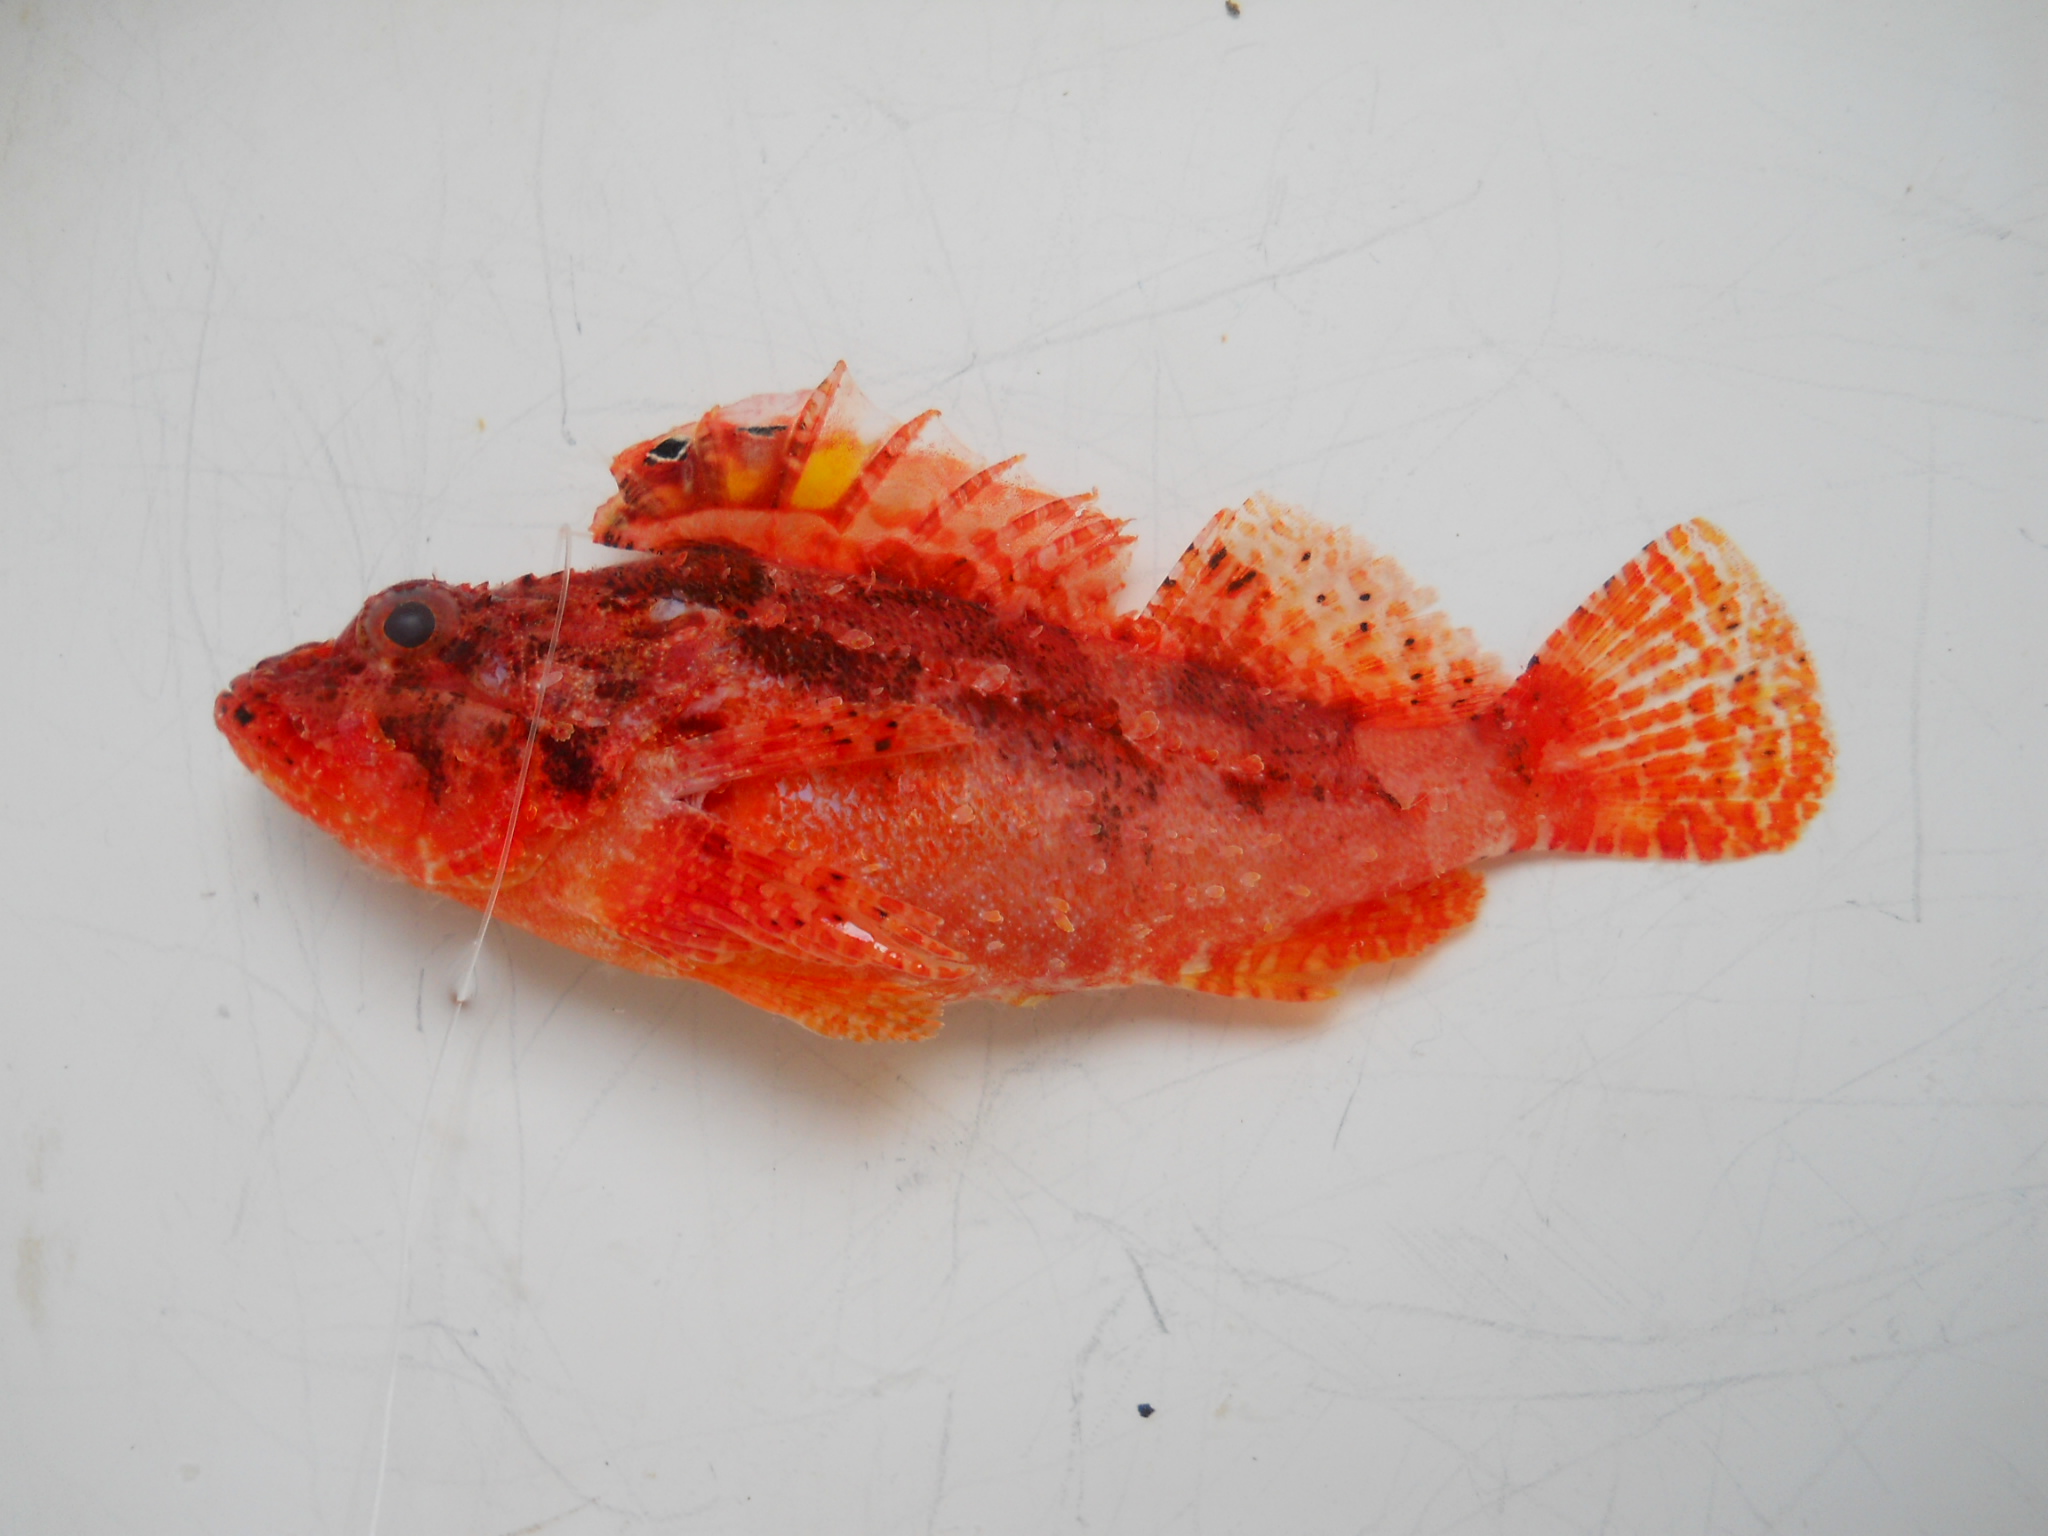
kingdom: Animalia
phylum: Chordata
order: Scorpaeniformes
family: Scorpaenidae
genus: Iracundus
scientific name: Iracundus signifer
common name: Decoy scorpionfish
